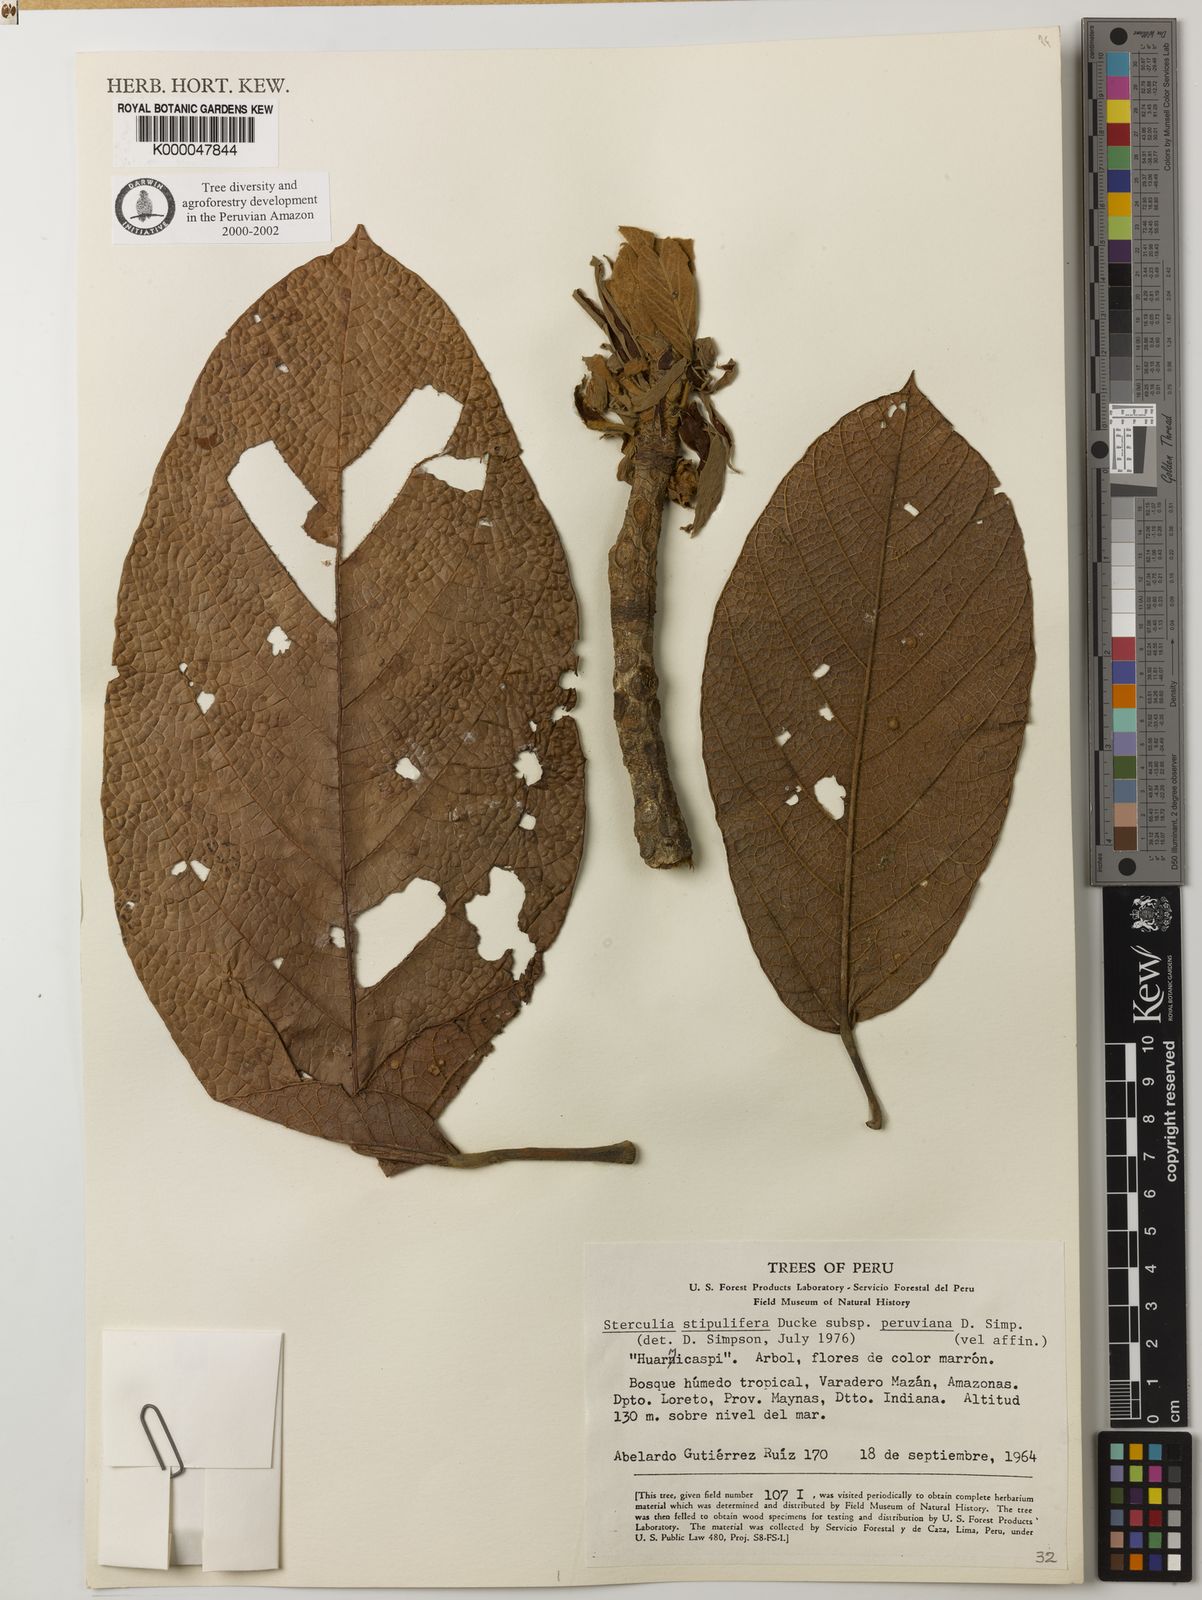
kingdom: Plantae
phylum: Tracheophyta
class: Magnoliopsida
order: Malvales
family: Malvaceae
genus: Sterculia
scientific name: Sterculia peruviana
